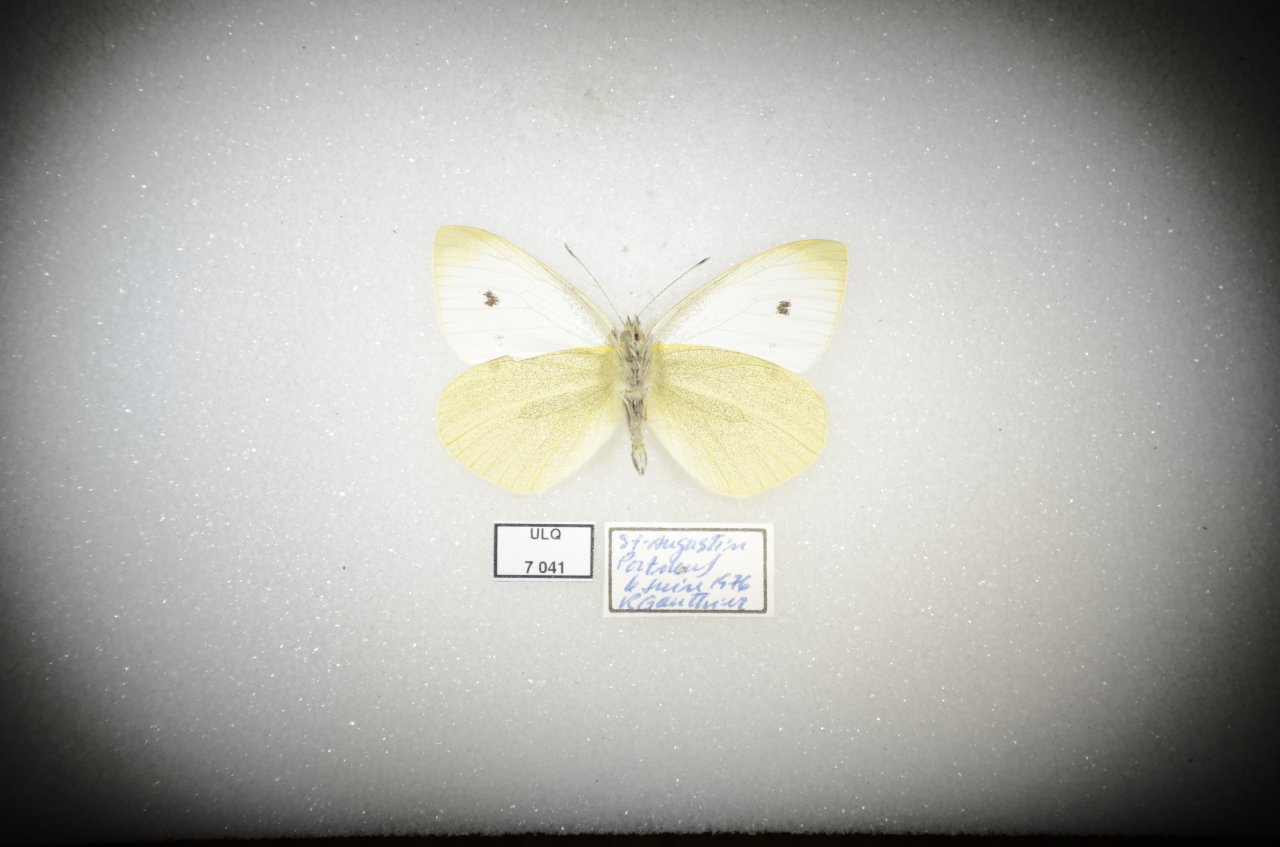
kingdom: Animalia
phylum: Arthropoda
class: Insecta
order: Lepidoptera
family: Pieridae
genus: Pieris
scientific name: Pieris rapae
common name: Cabbage White
